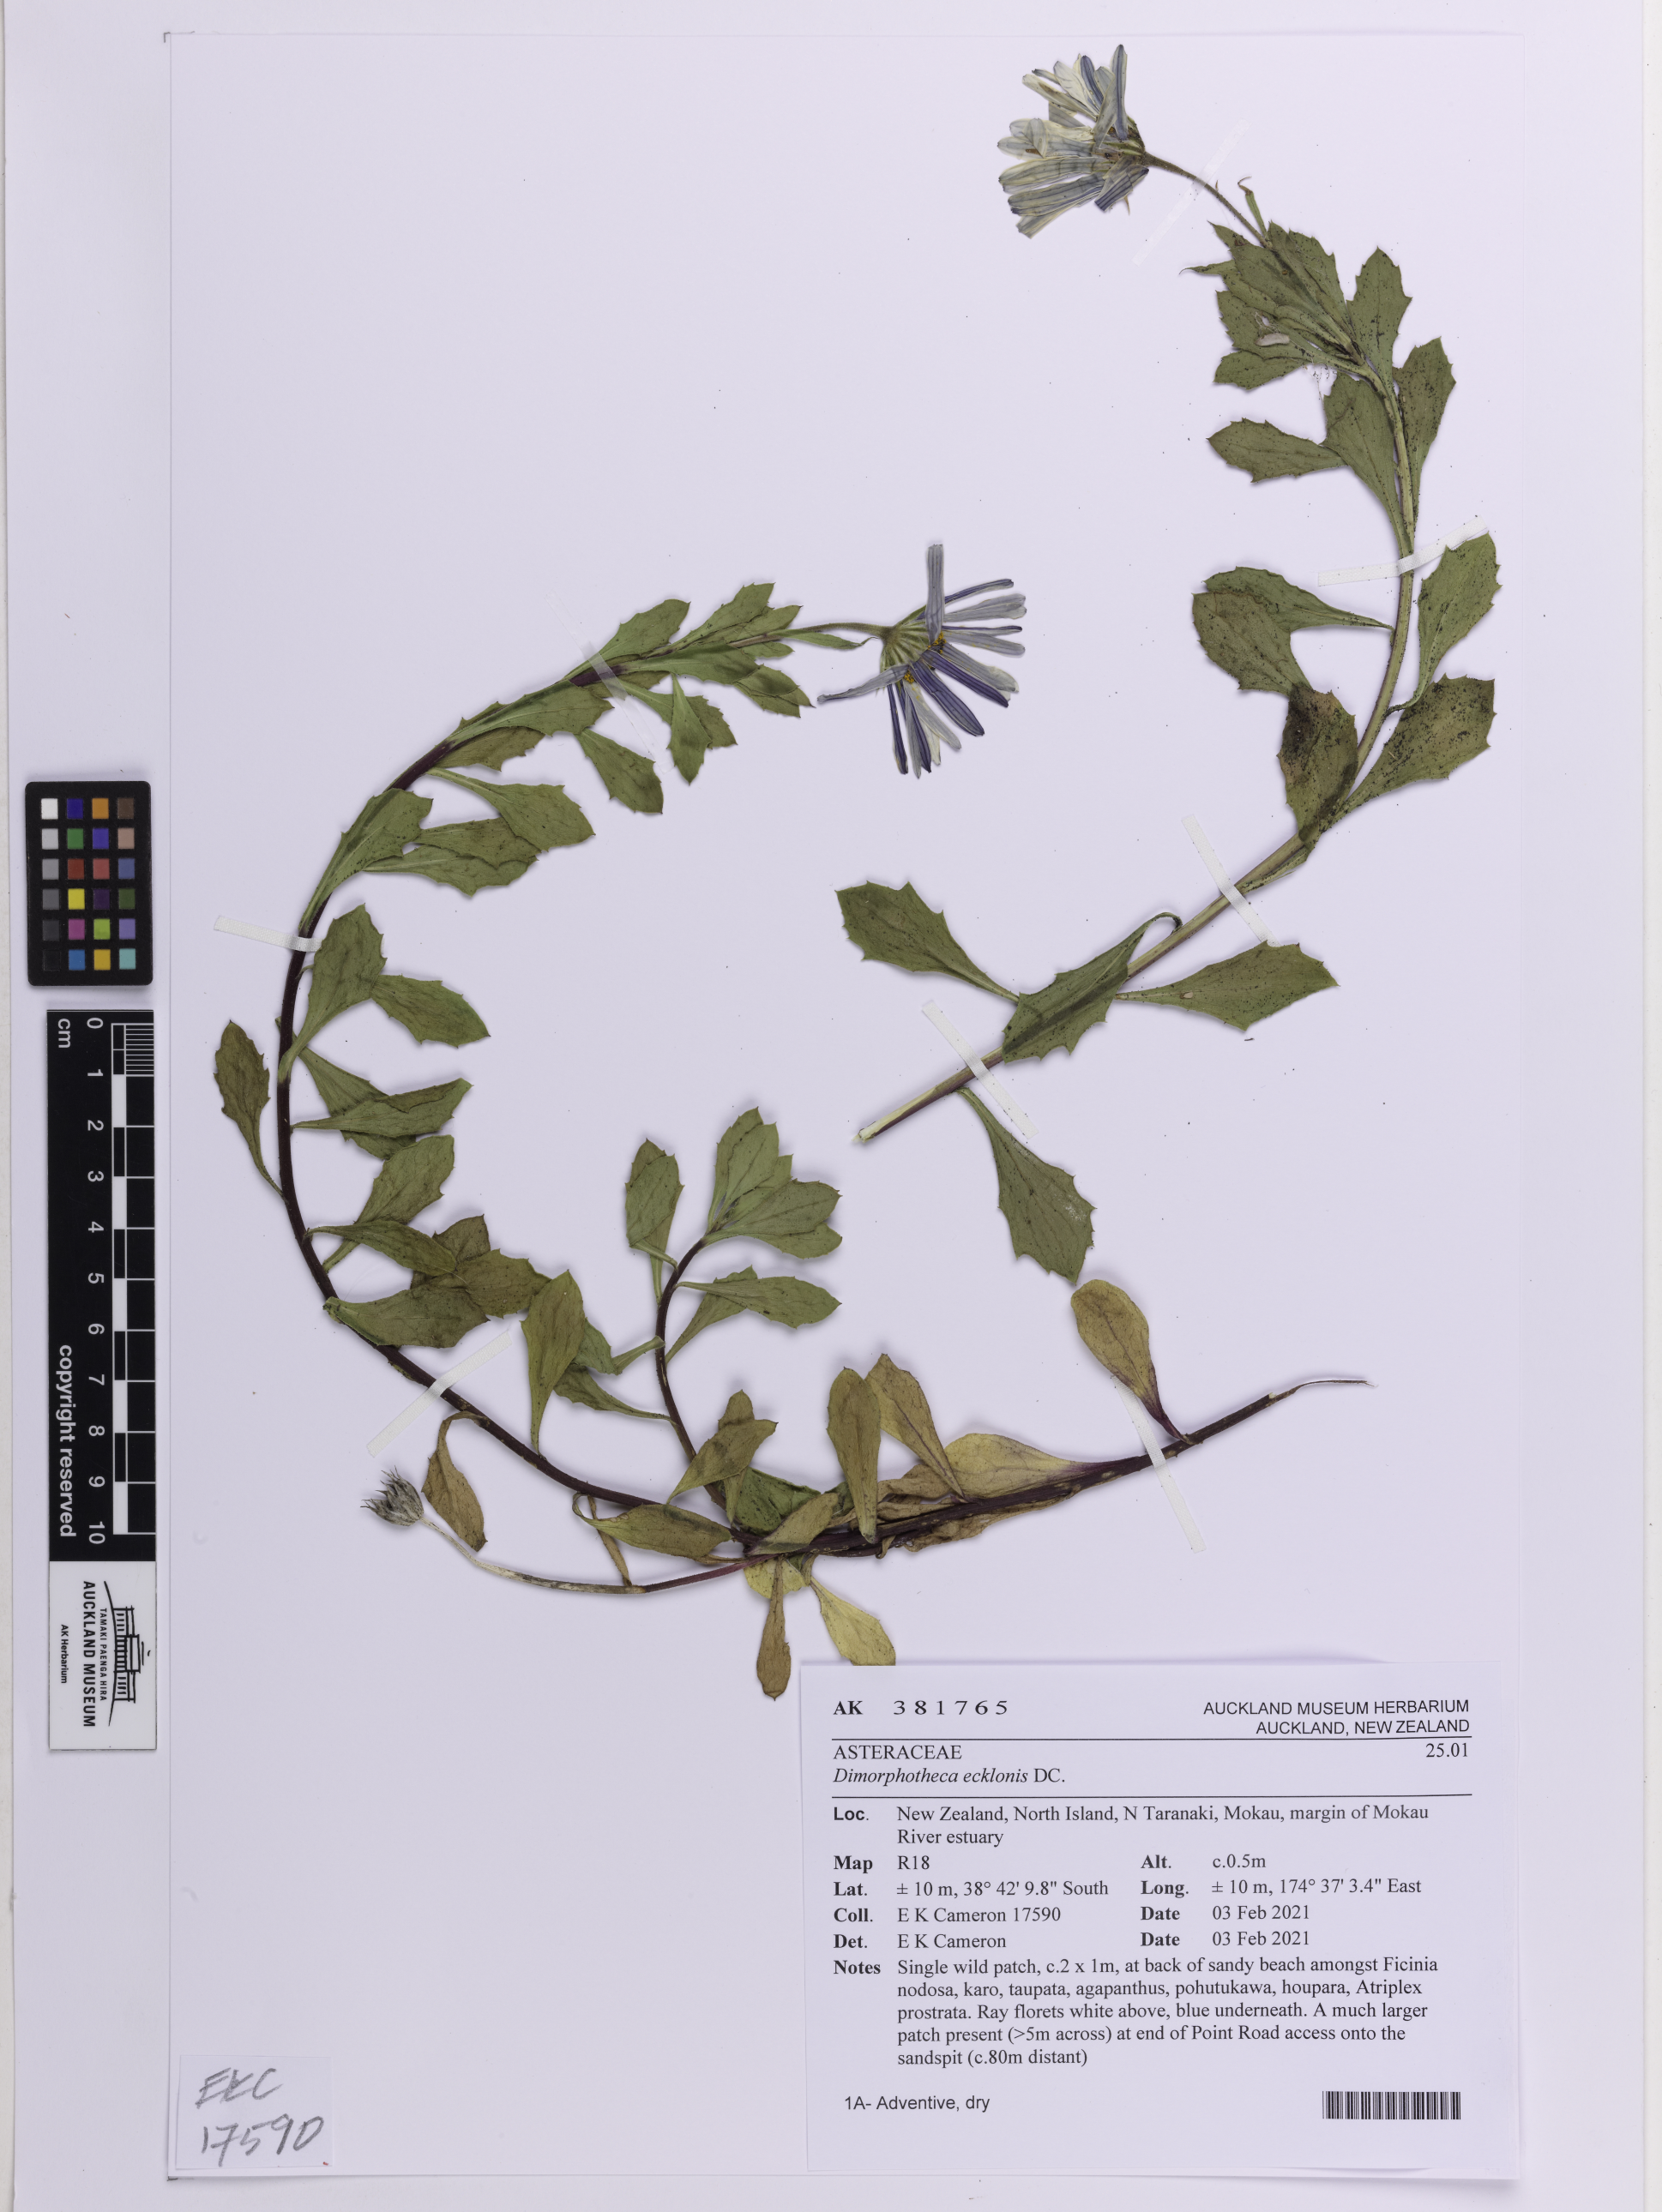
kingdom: Plantae
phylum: Tracheophyta
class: Magnoliopsida
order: Asterales
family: Asteraceae
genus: Dimorphotheca
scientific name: Dimorphotheca ecklonis
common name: Vanstaden's river daisy
